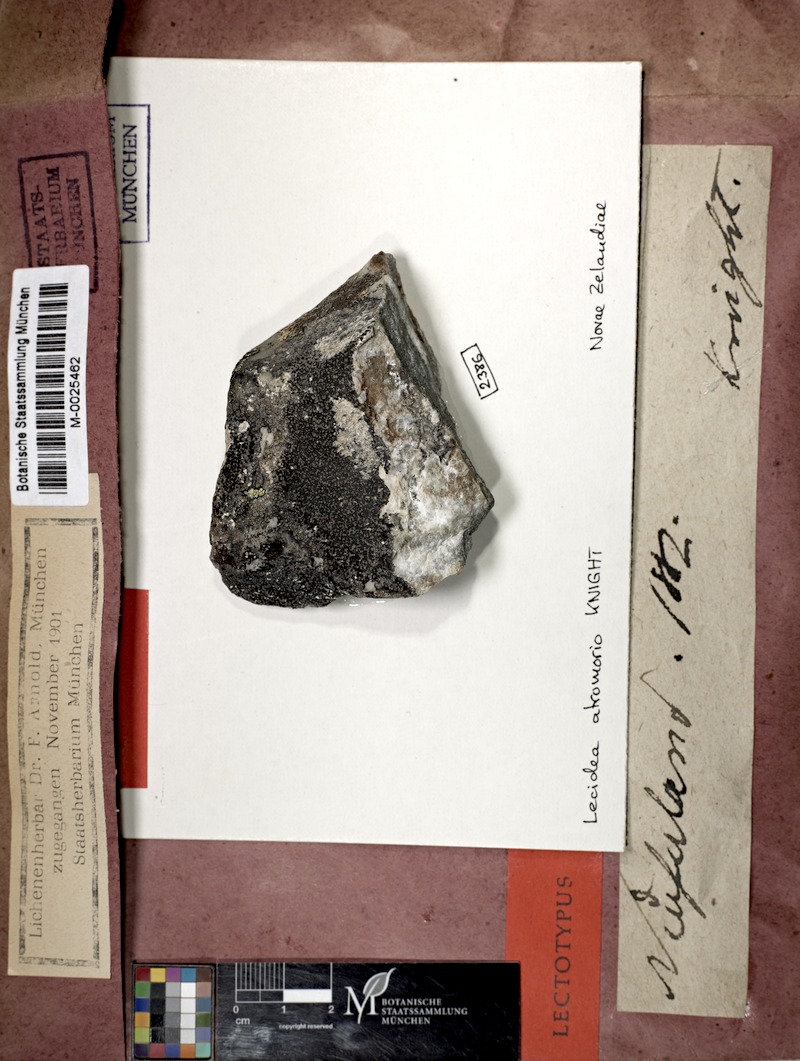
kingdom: Fungi
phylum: Ascomycota
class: Lecanoromycetes
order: Lecideales
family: Lecideaceae
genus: Lecidea
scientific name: Lecidea atromorio
